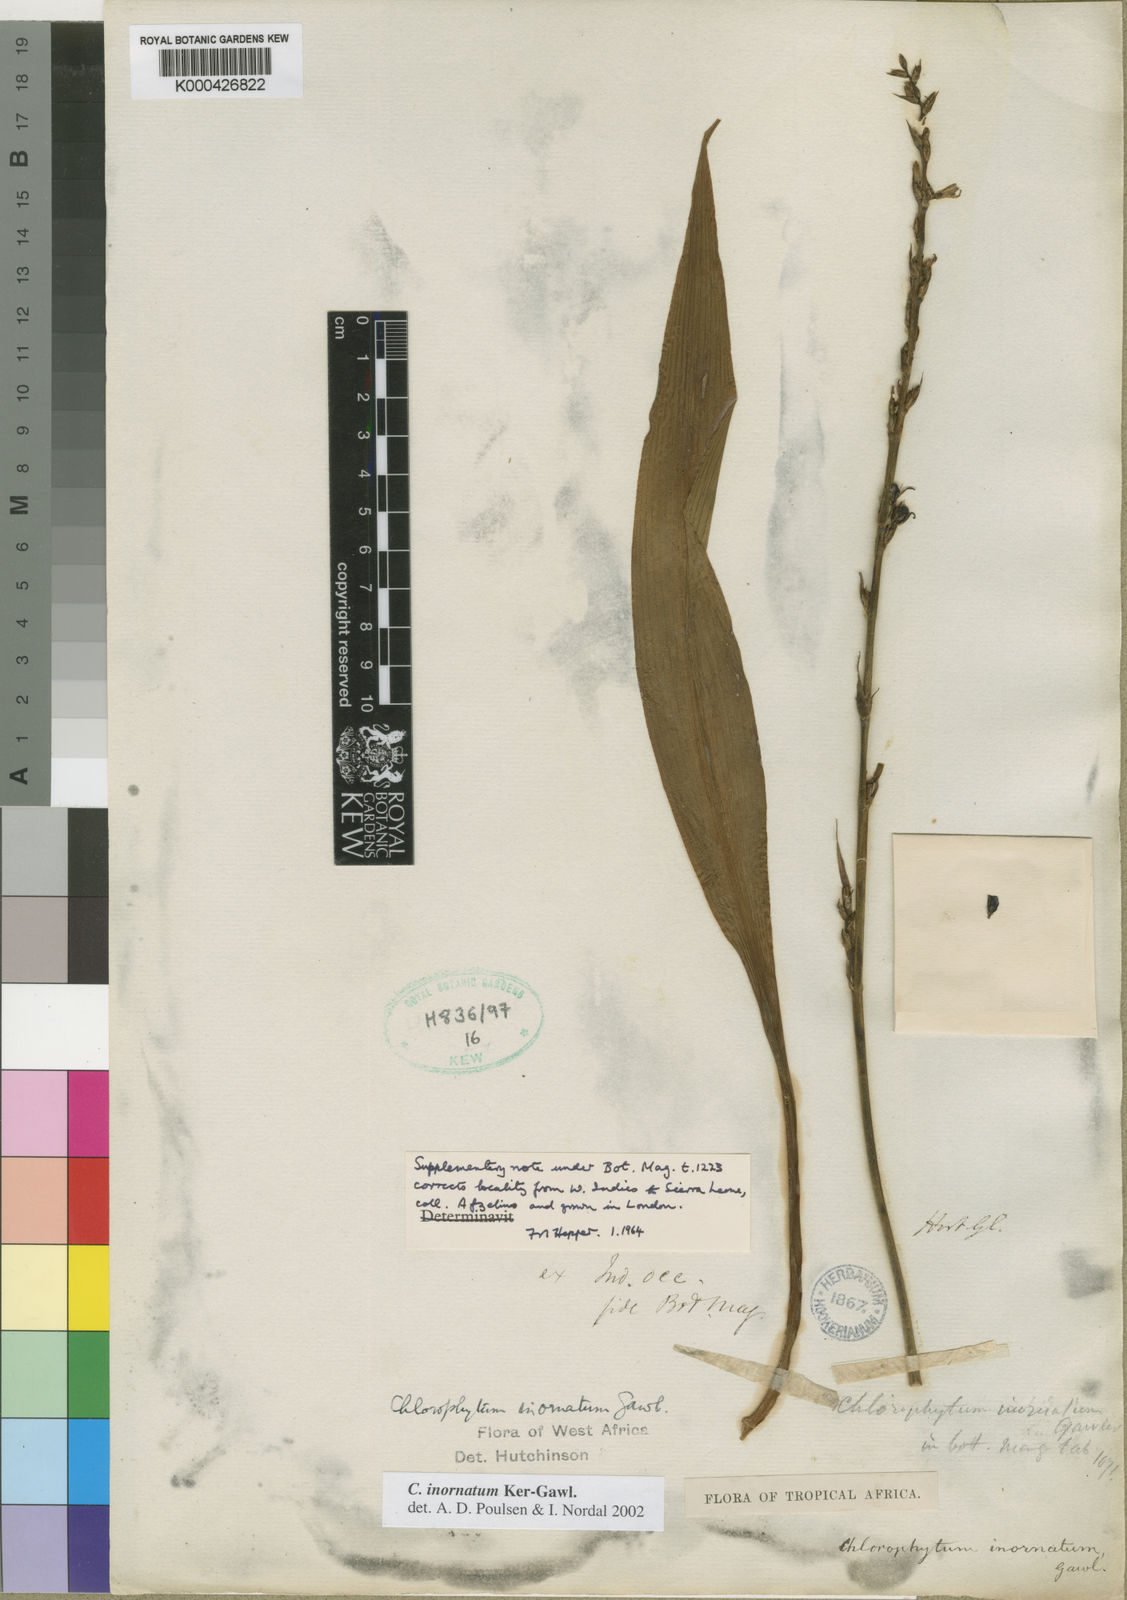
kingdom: Plantae
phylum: Tracheophyta
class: Liliopsida
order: Asparagales
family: Asparagaceae
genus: Chlorophytum
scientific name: Chlorophytum inornatum
